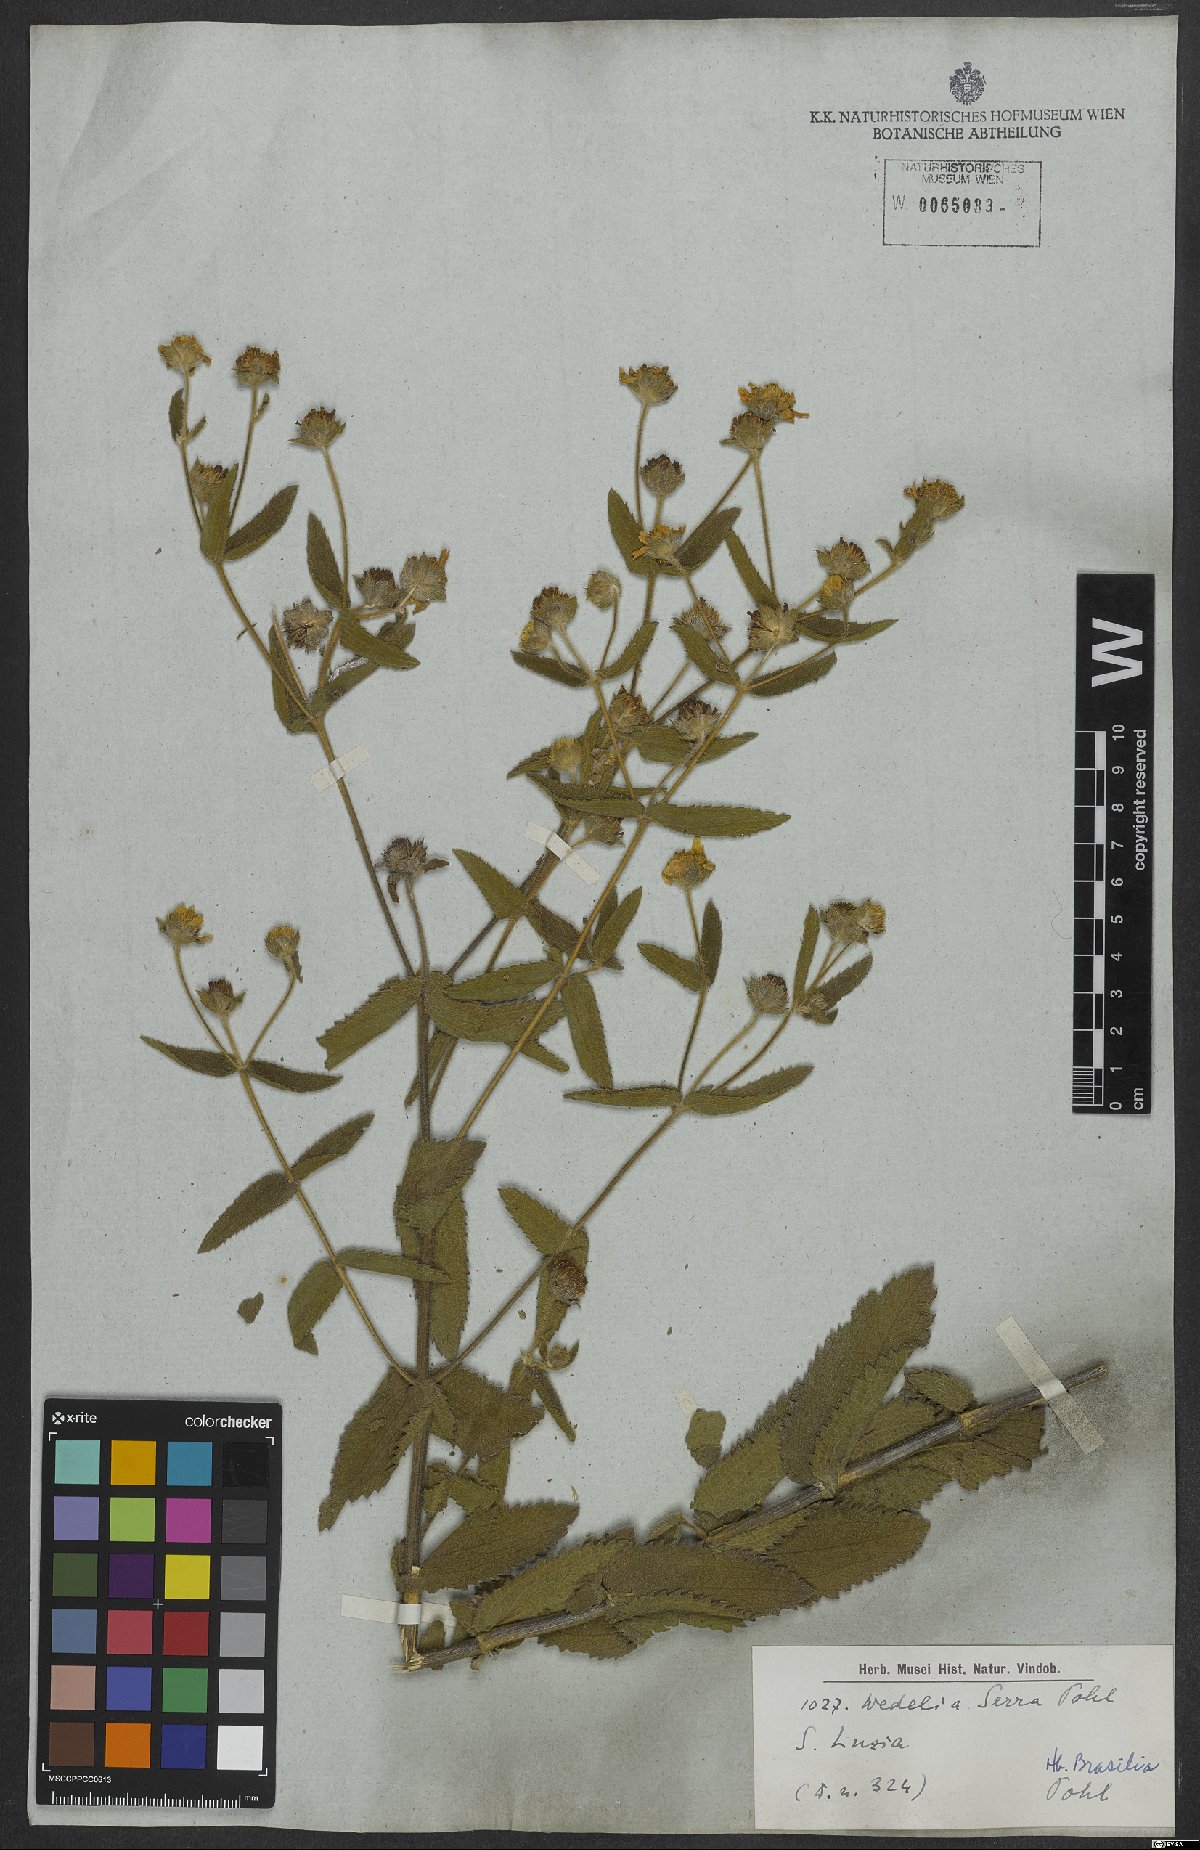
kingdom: Plantae
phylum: Tracheophyta
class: Magnoliopsida
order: Asterales
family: Asteraceae
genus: Wedelia
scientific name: Wedelia macrodonta
